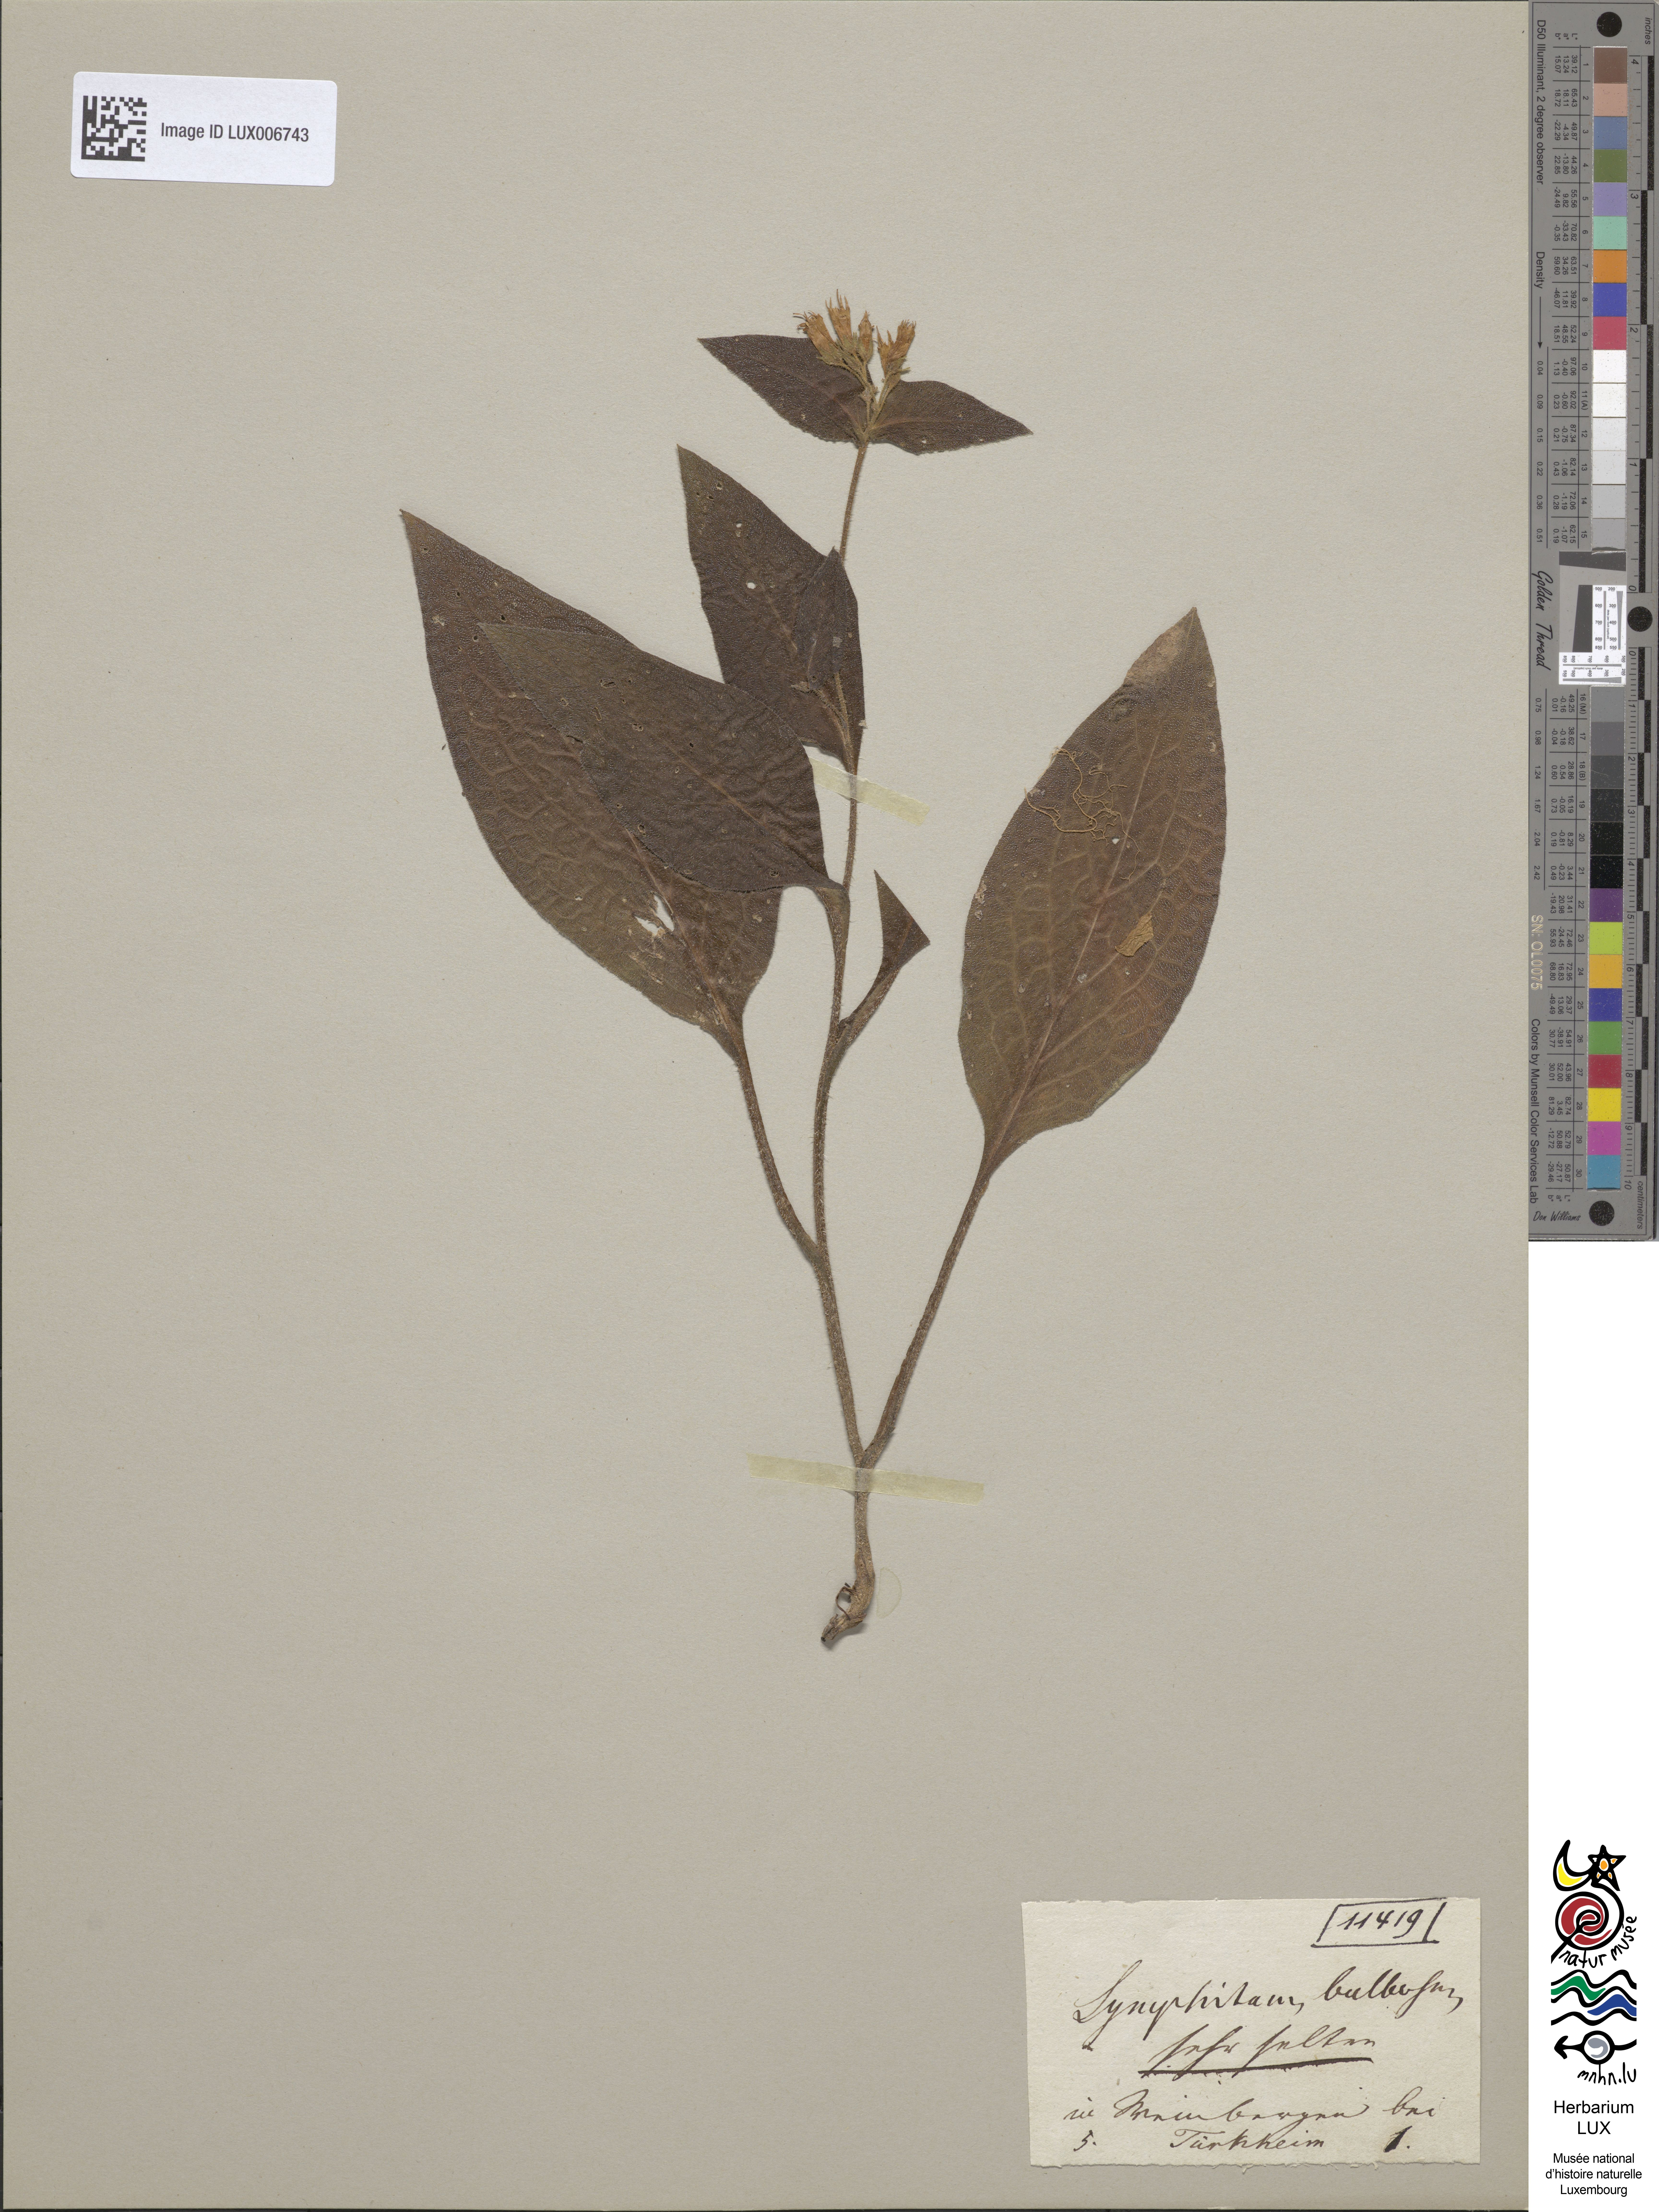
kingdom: Plantae
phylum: Tracheophyta
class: Magnoliopsida
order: Boraginales
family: Boraginaceae
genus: Symphytum
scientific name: Symphytum bulbosum
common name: Bulbous comfrey
